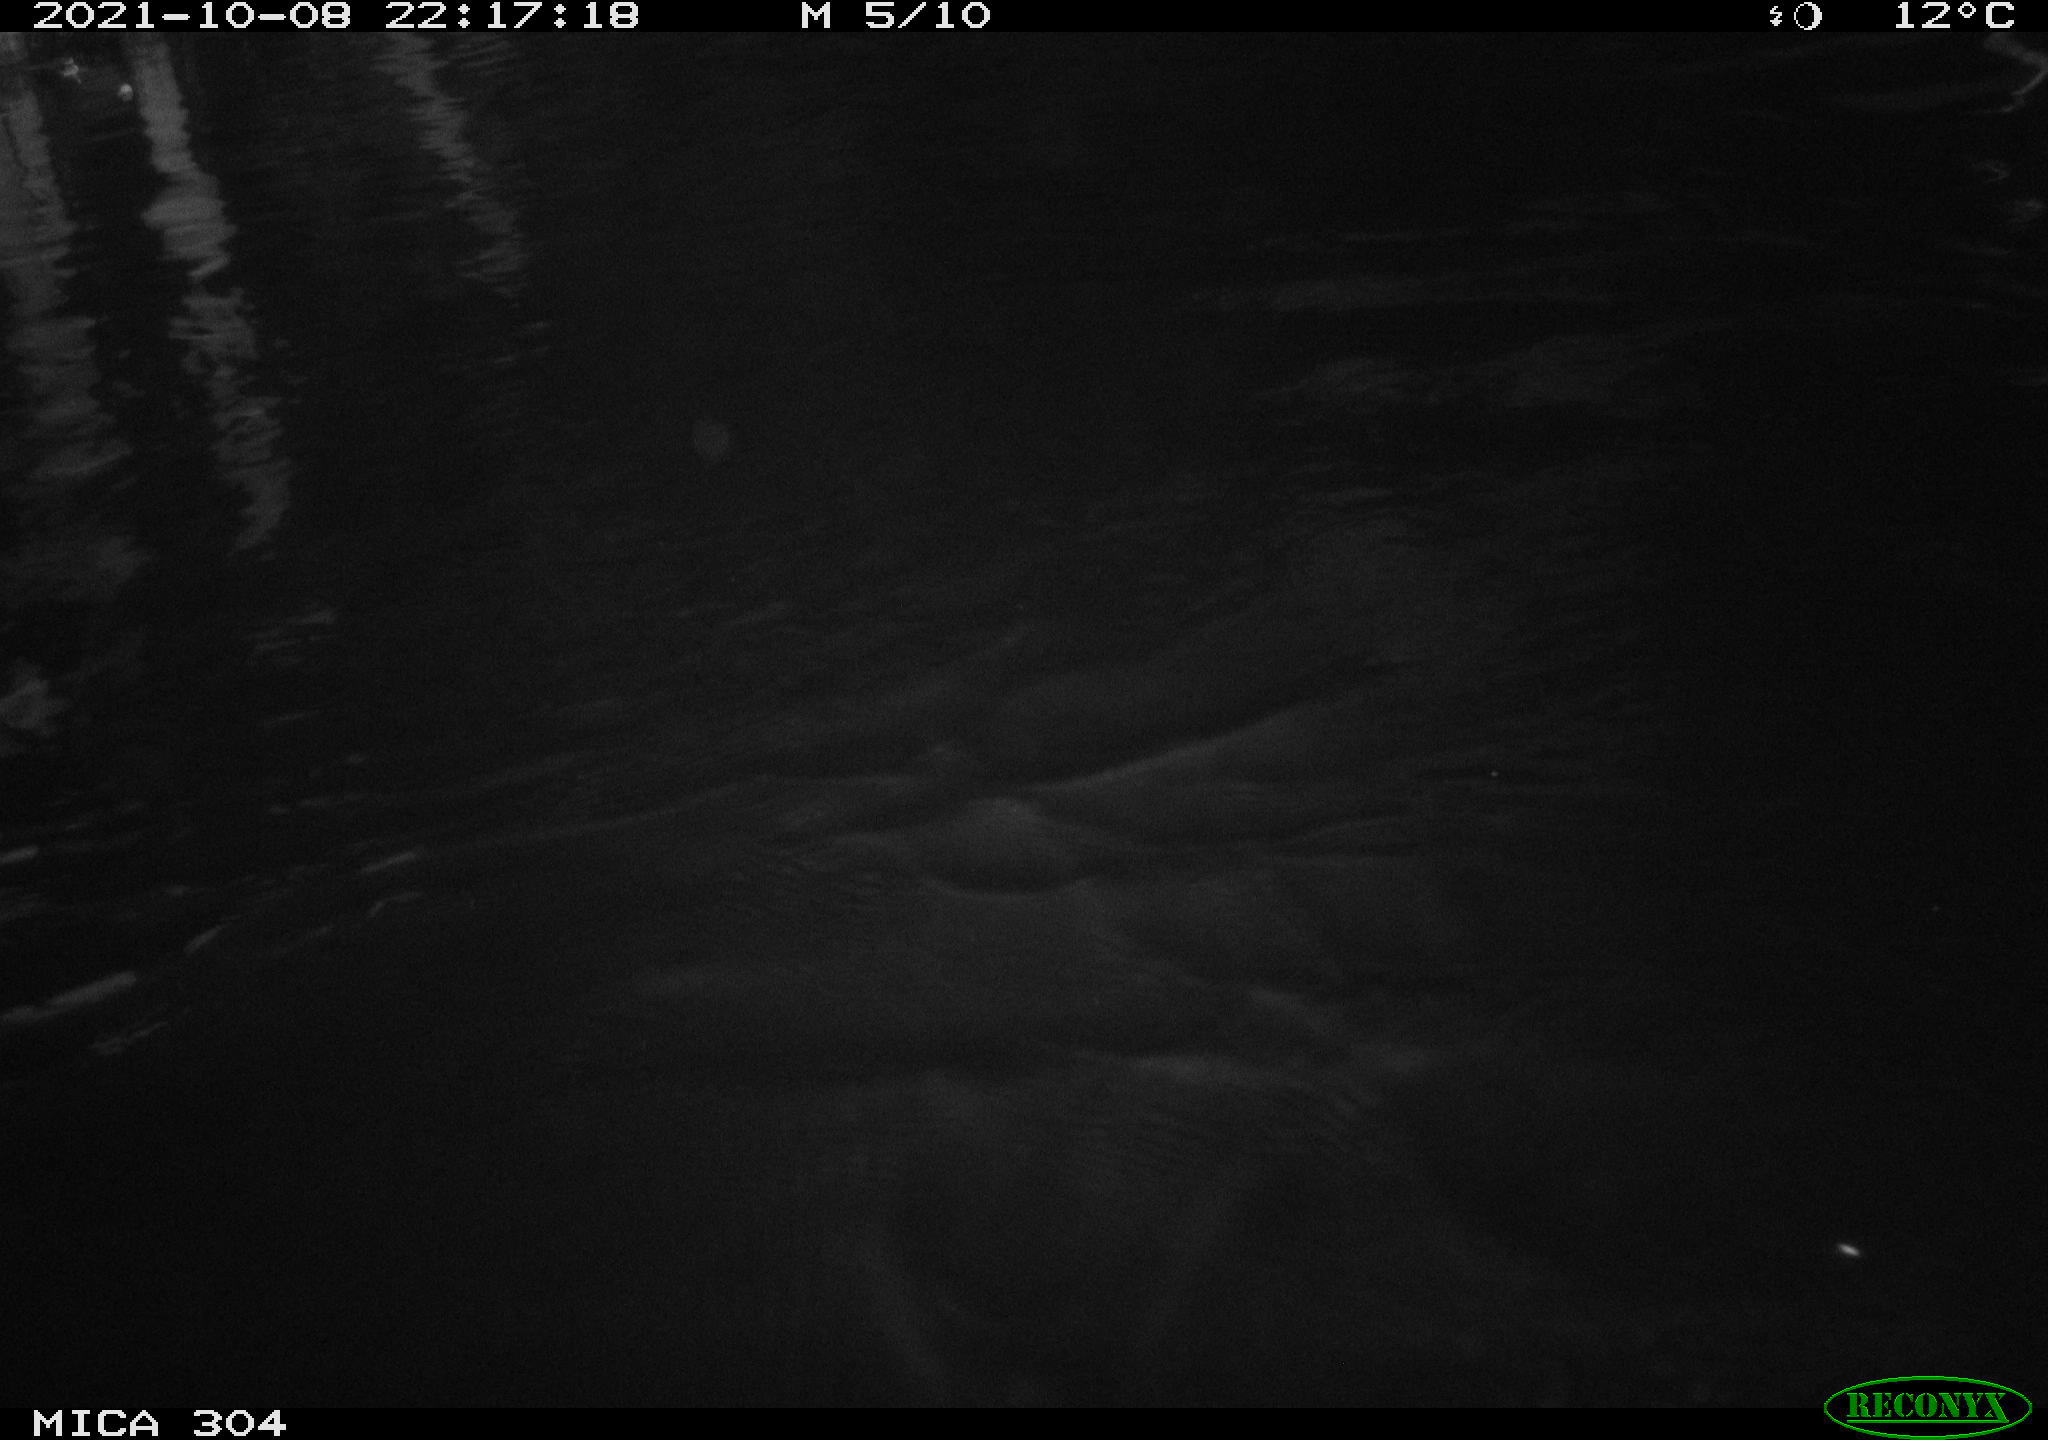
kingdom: Animalia
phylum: Chordata
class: Mammalia
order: Rodentia
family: Cricetidae
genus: Ondatra
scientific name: Ondatra zibethicus
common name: Muskrat
